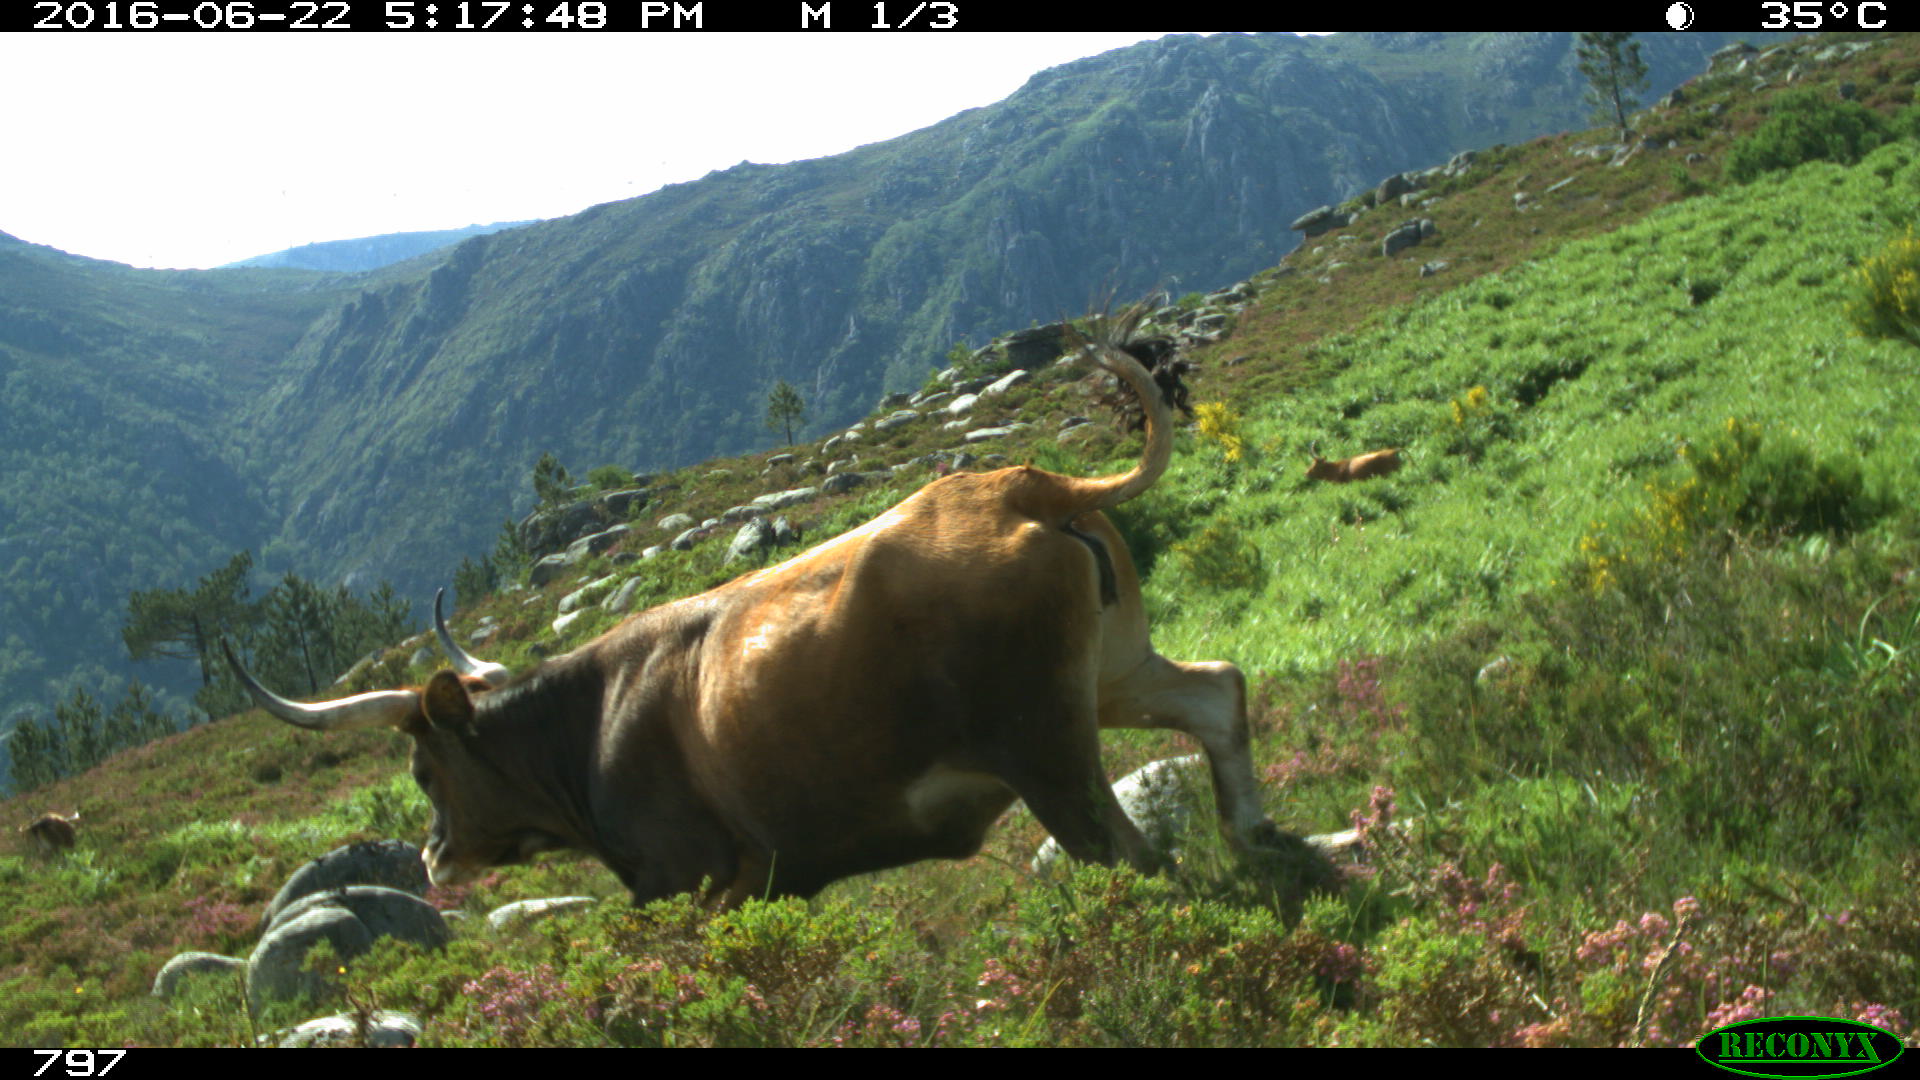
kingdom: Animalia
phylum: Chordata
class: Mammalia
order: Artiodactyla
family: Bovidae
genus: Bos
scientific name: Bos taurus
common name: Domesticated cattle
